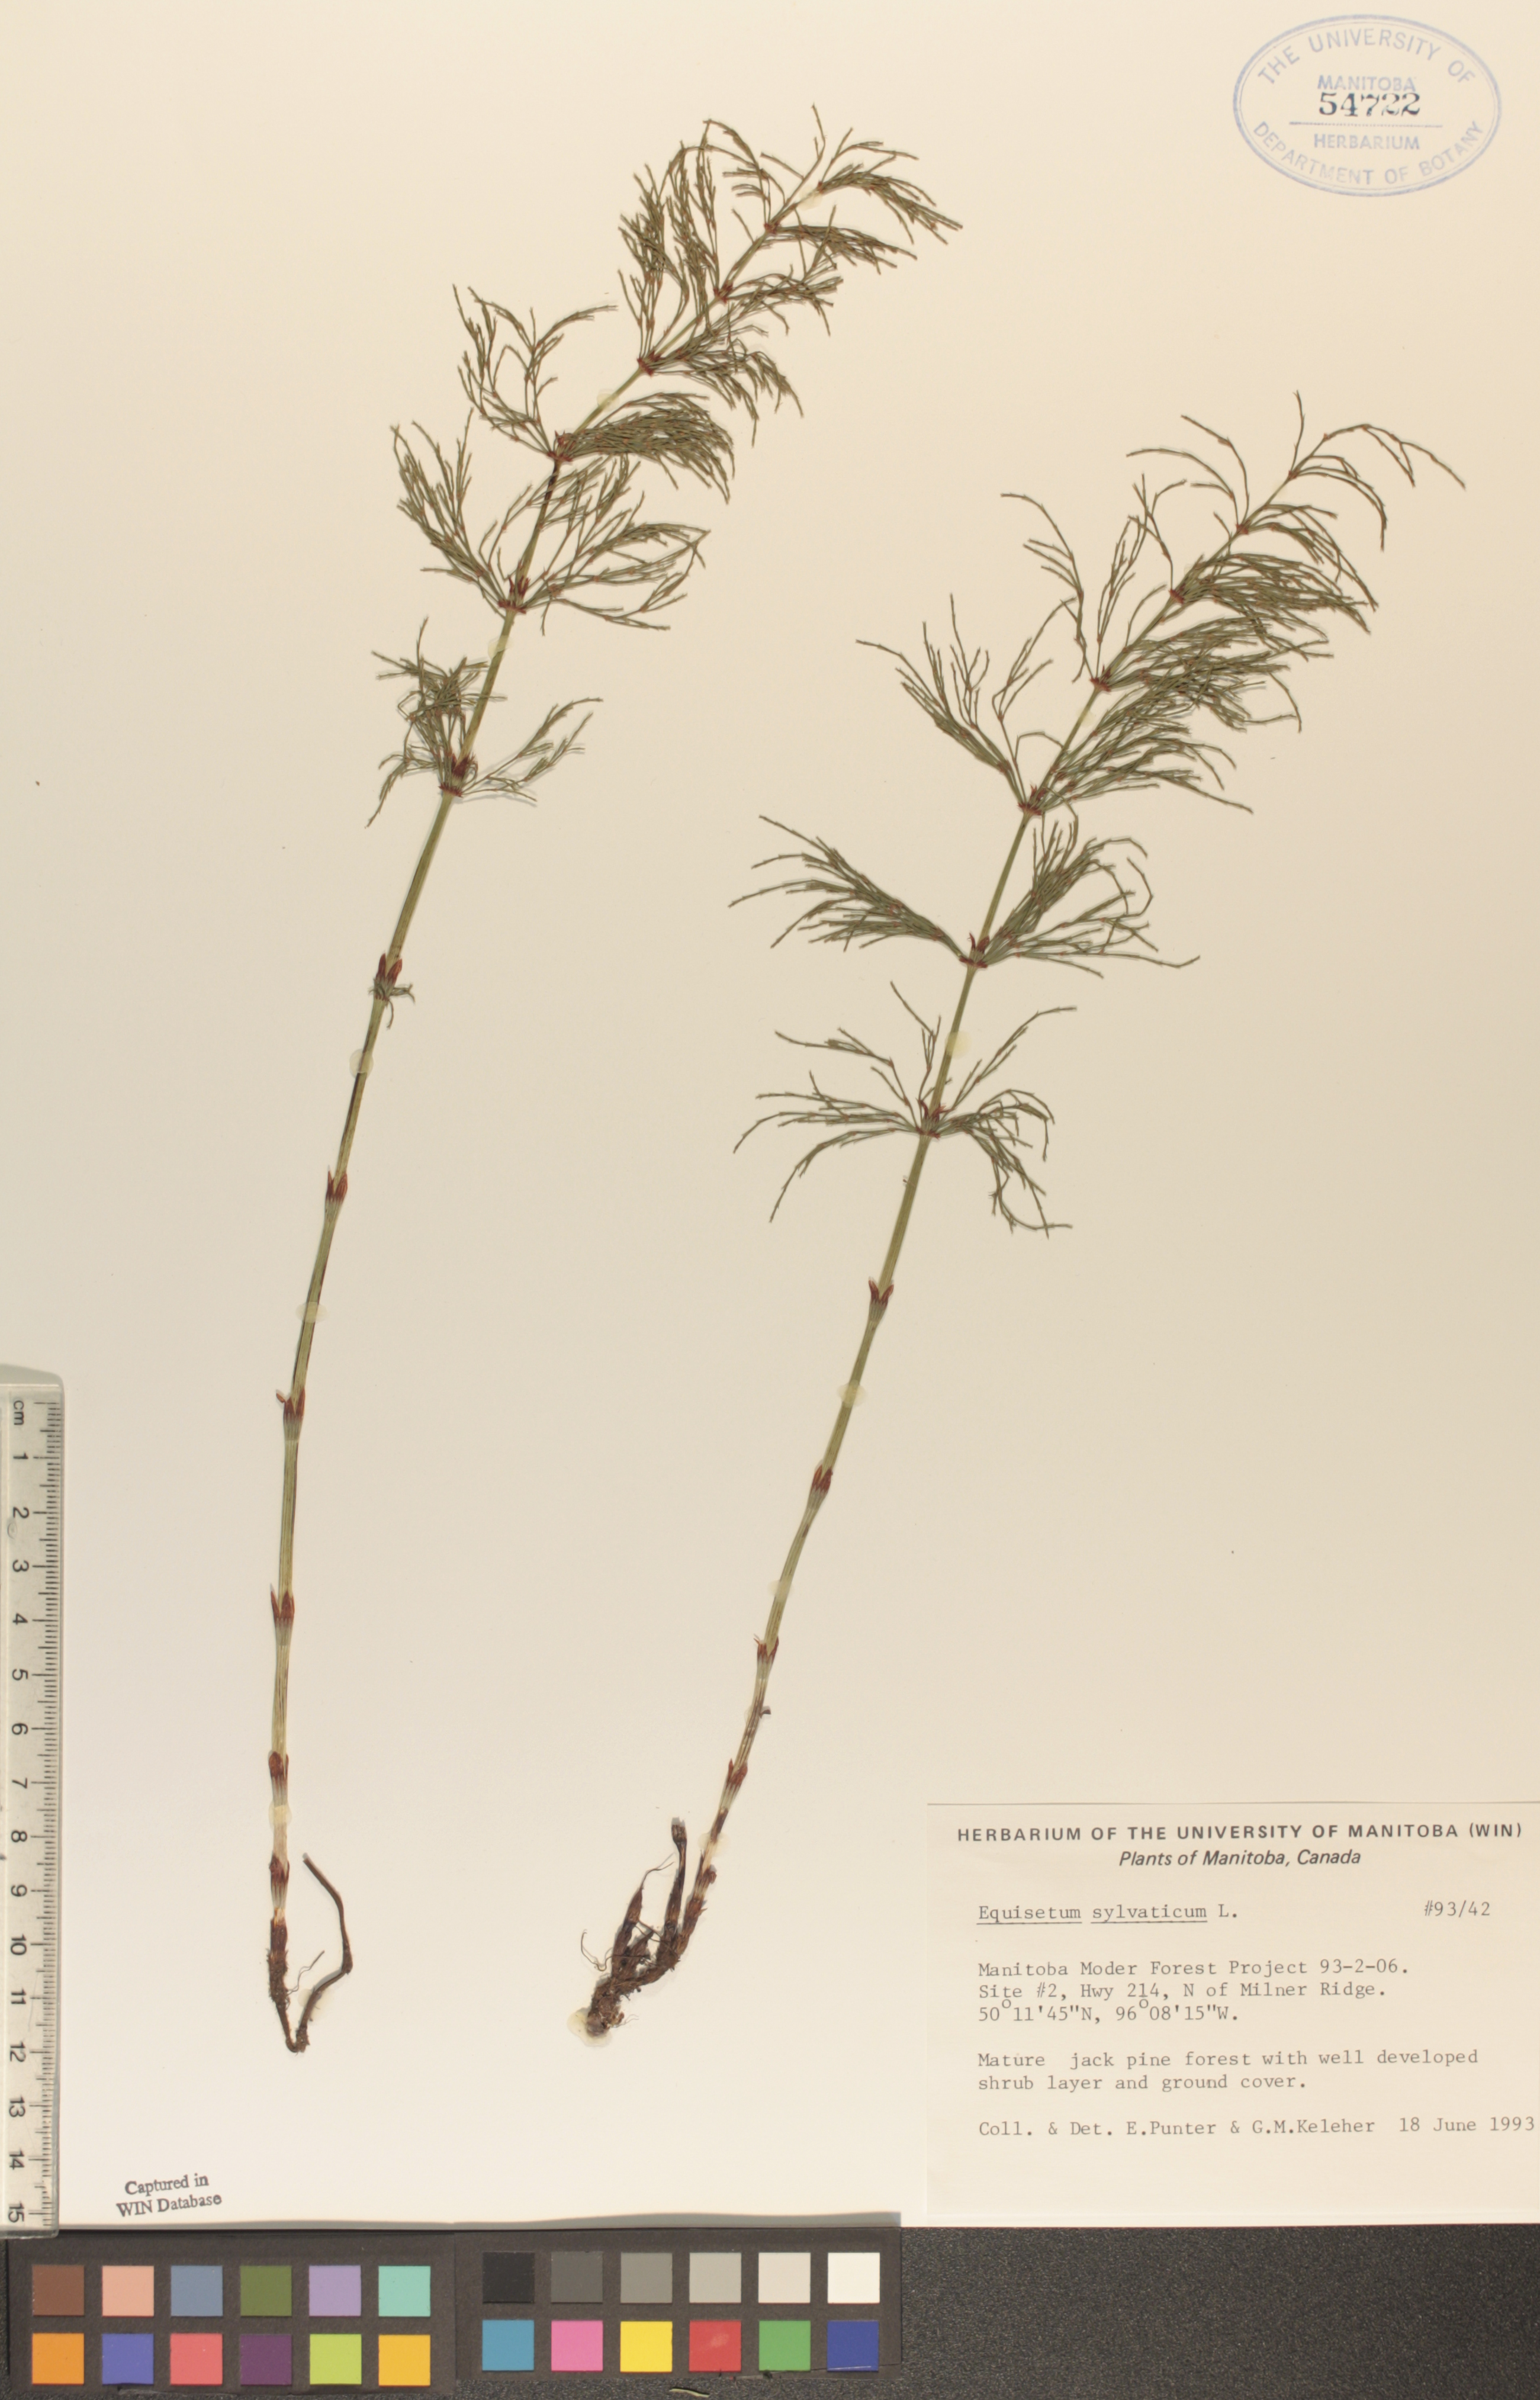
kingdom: Plantae
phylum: Tracheophyta
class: Polypodiopsida
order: Equisetales
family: Equisetaceae
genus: Equisetum
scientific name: Equisetum sylvaticum
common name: Wood horsetail
